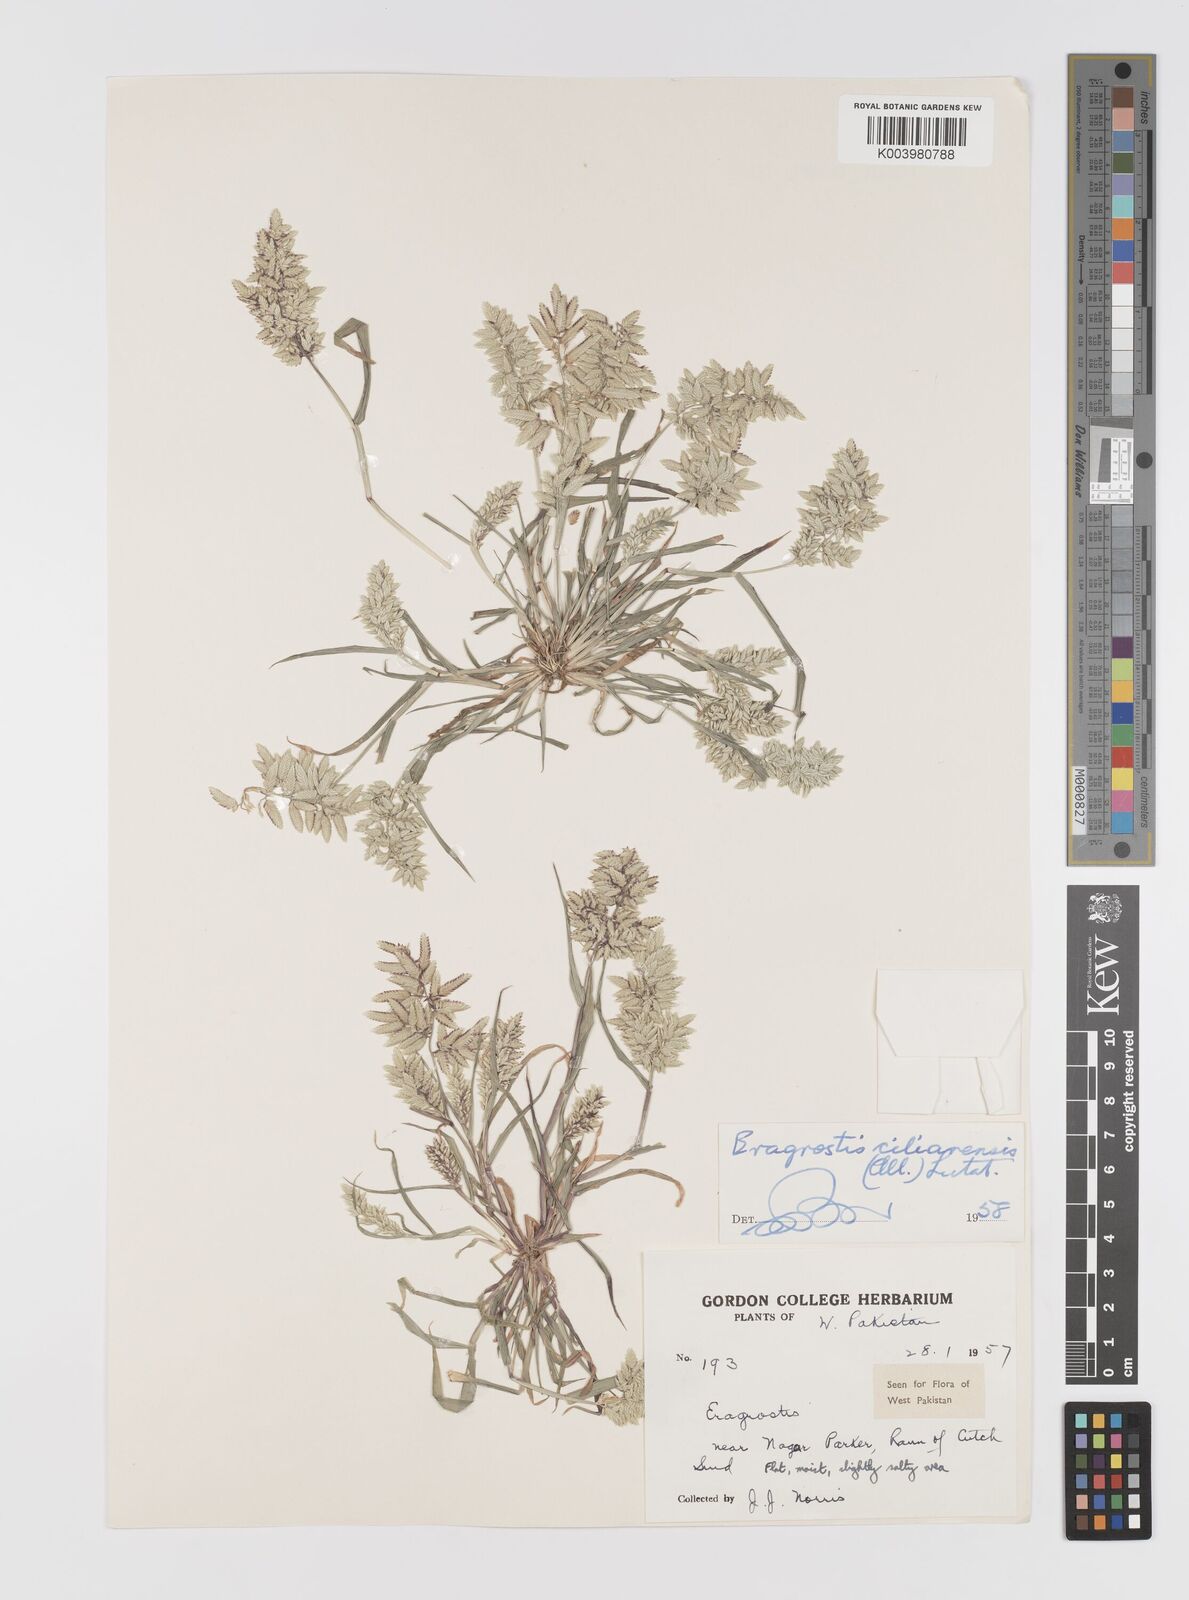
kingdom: Plantae
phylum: Tracheophyta
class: Liliopsida
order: Poales
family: Poaceae
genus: Eragrostis
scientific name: Eragrostis cilianensis
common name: Stinkgrass
